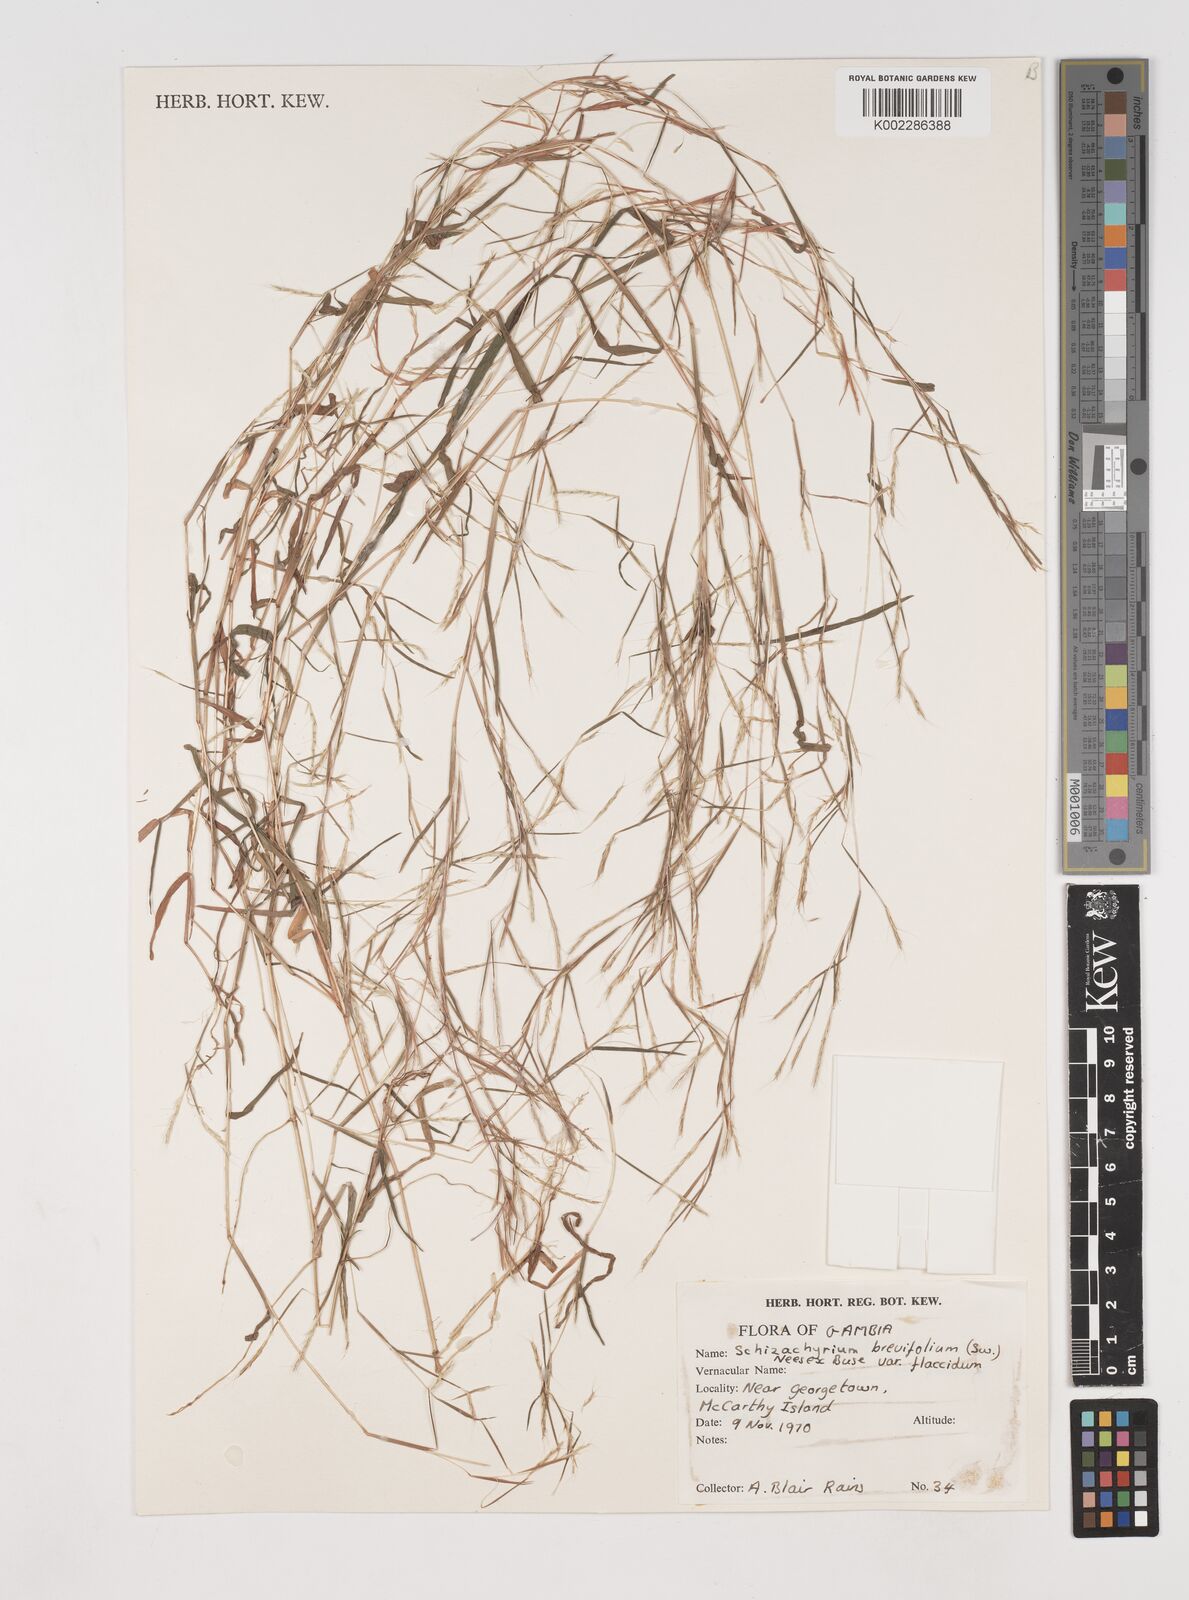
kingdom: Plantae
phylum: Tracheophyta
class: Liliopsida
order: Poales
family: Poaceae
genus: Schizachyrium
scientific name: Schizachyrium brevifolium
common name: Serillo dulce
